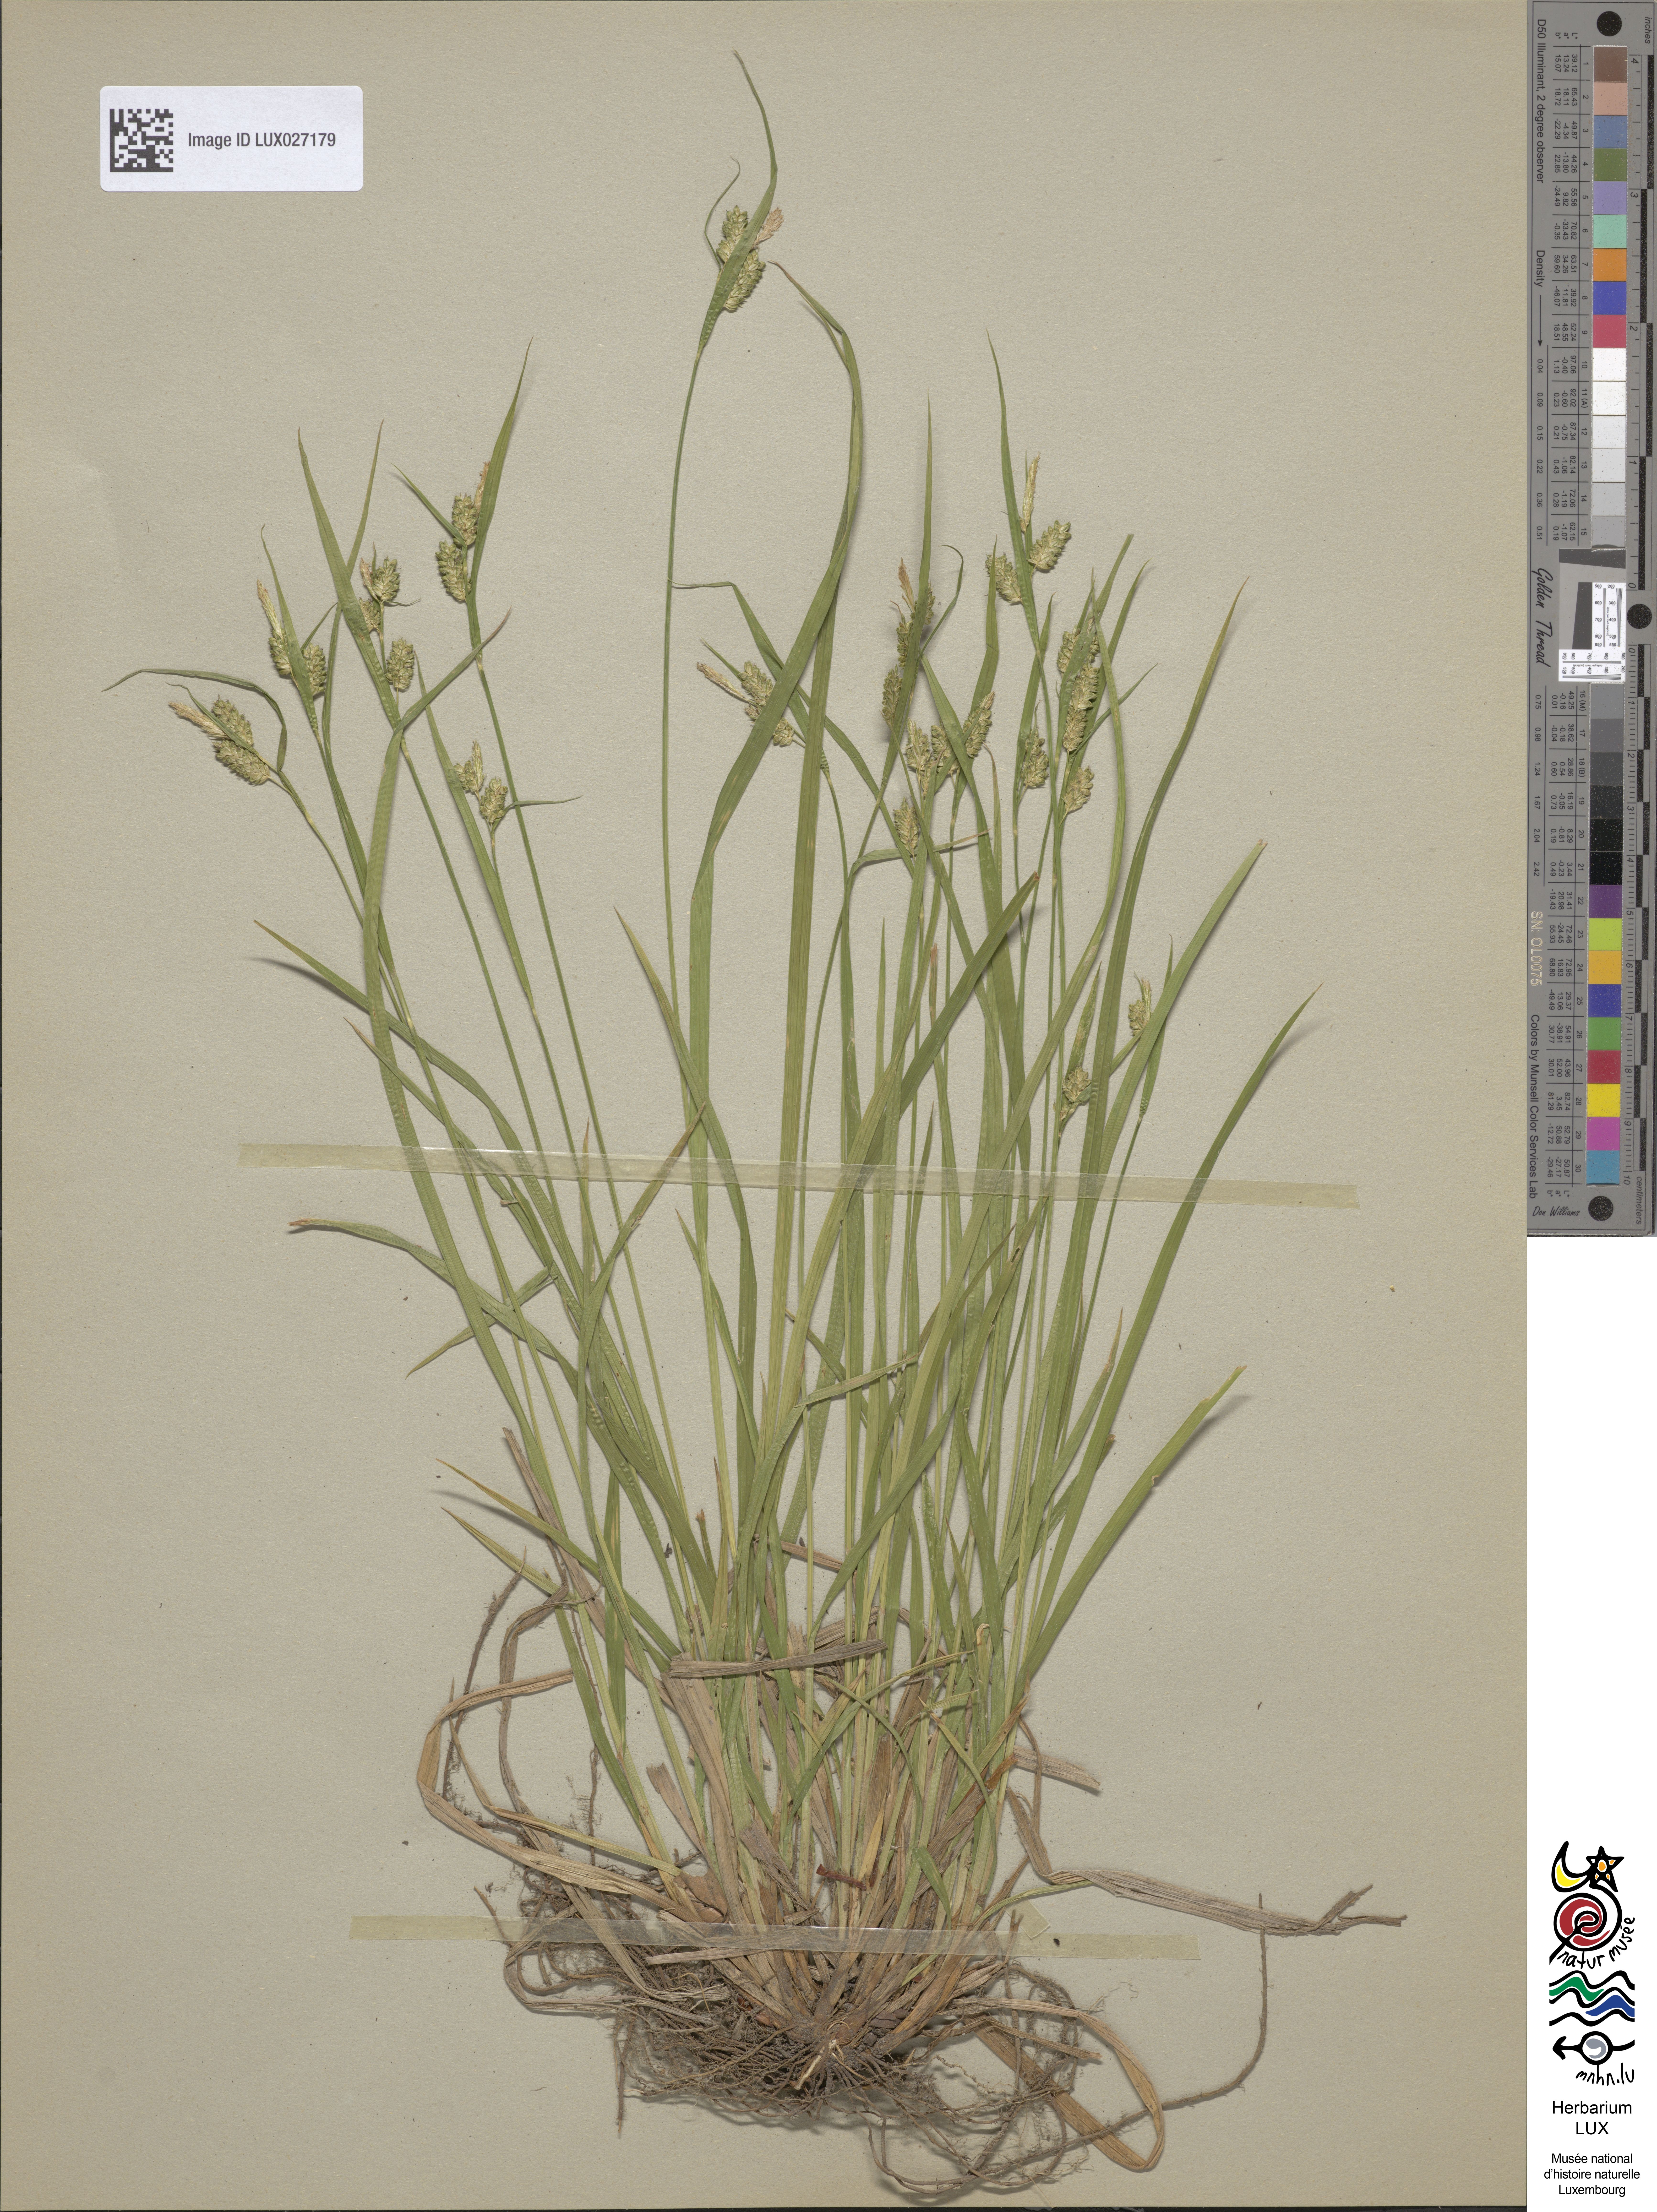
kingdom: Plantae
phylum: Tracheophyta
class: Liliopsida
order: Poales
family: Cyperaceae
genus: Carex
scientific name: Carex pallescens
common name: Pale sedge
